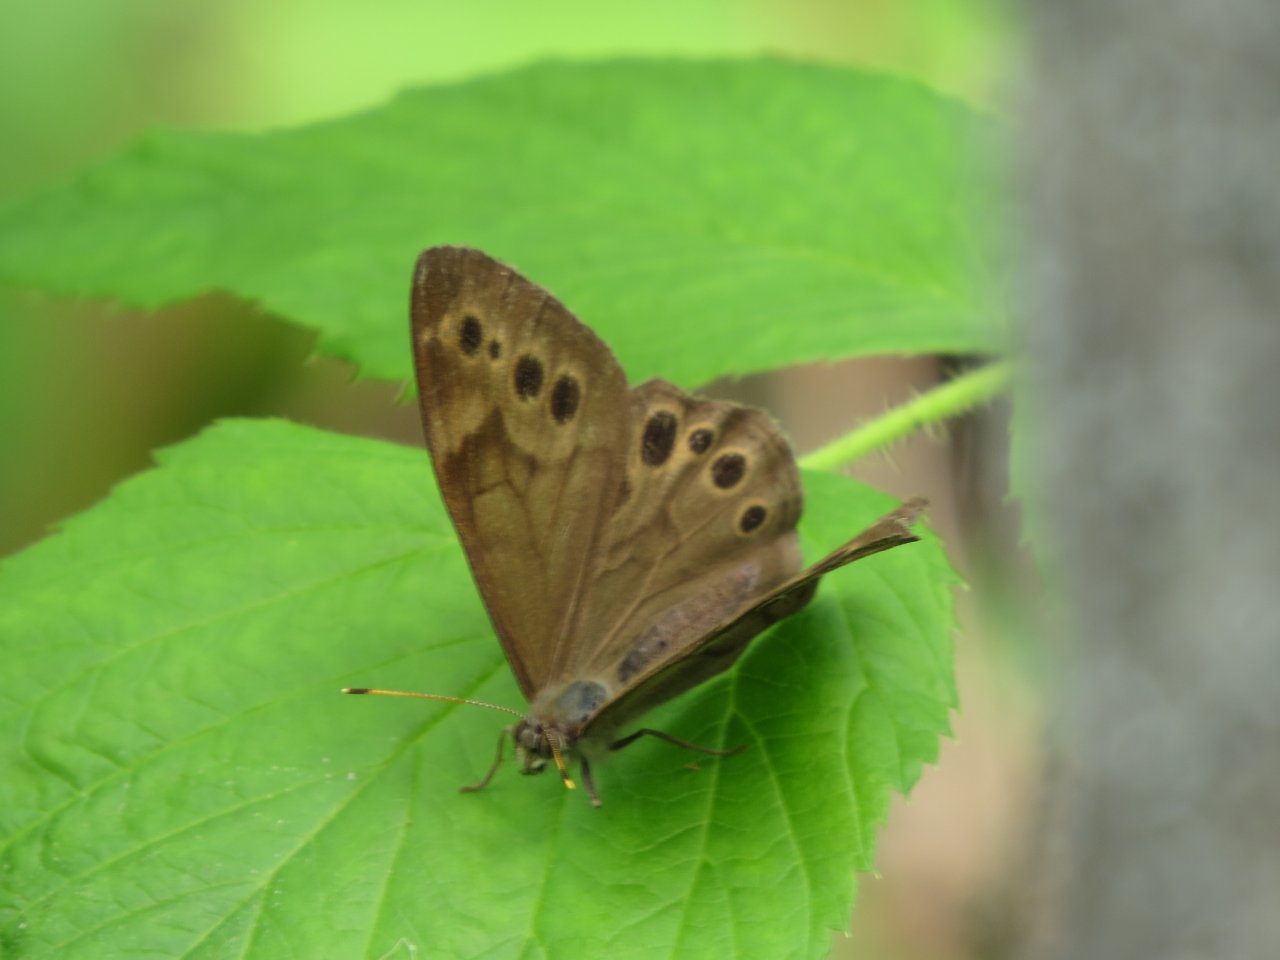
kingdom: Animalia
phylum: Arthropoda
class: Insecta
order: Lepidoptera
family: Nymphalidae
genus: Lethe
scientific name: Lethe anthedon
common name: Northern Pearly-Eye
